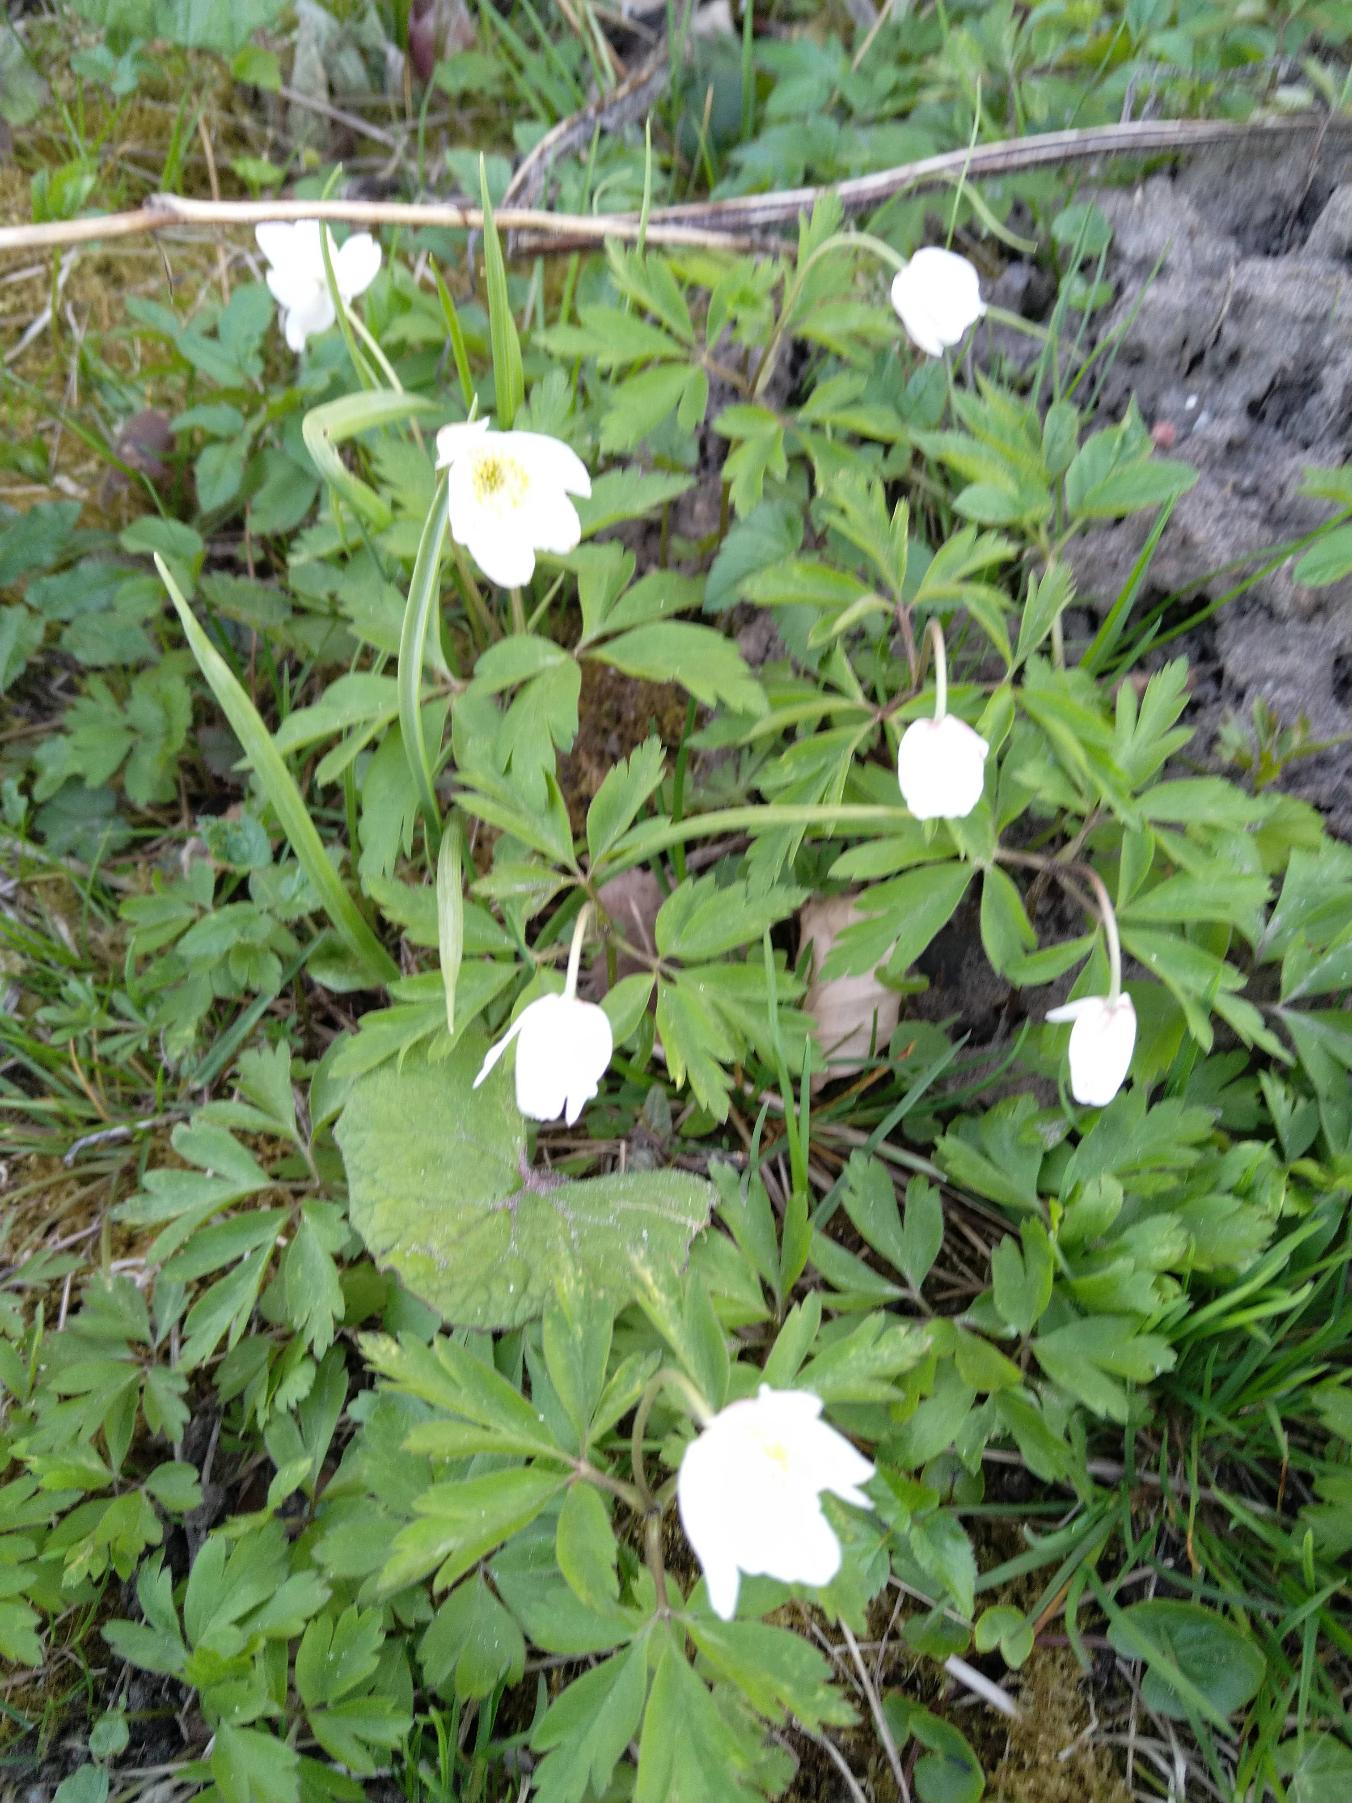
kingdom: Plantae
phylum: Tracheophyta
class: Magnoliopsida
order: Ranunculales
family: Ranunculaceae
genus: Anemone
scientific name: Anemone nemorosa
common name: Hvid anemone
